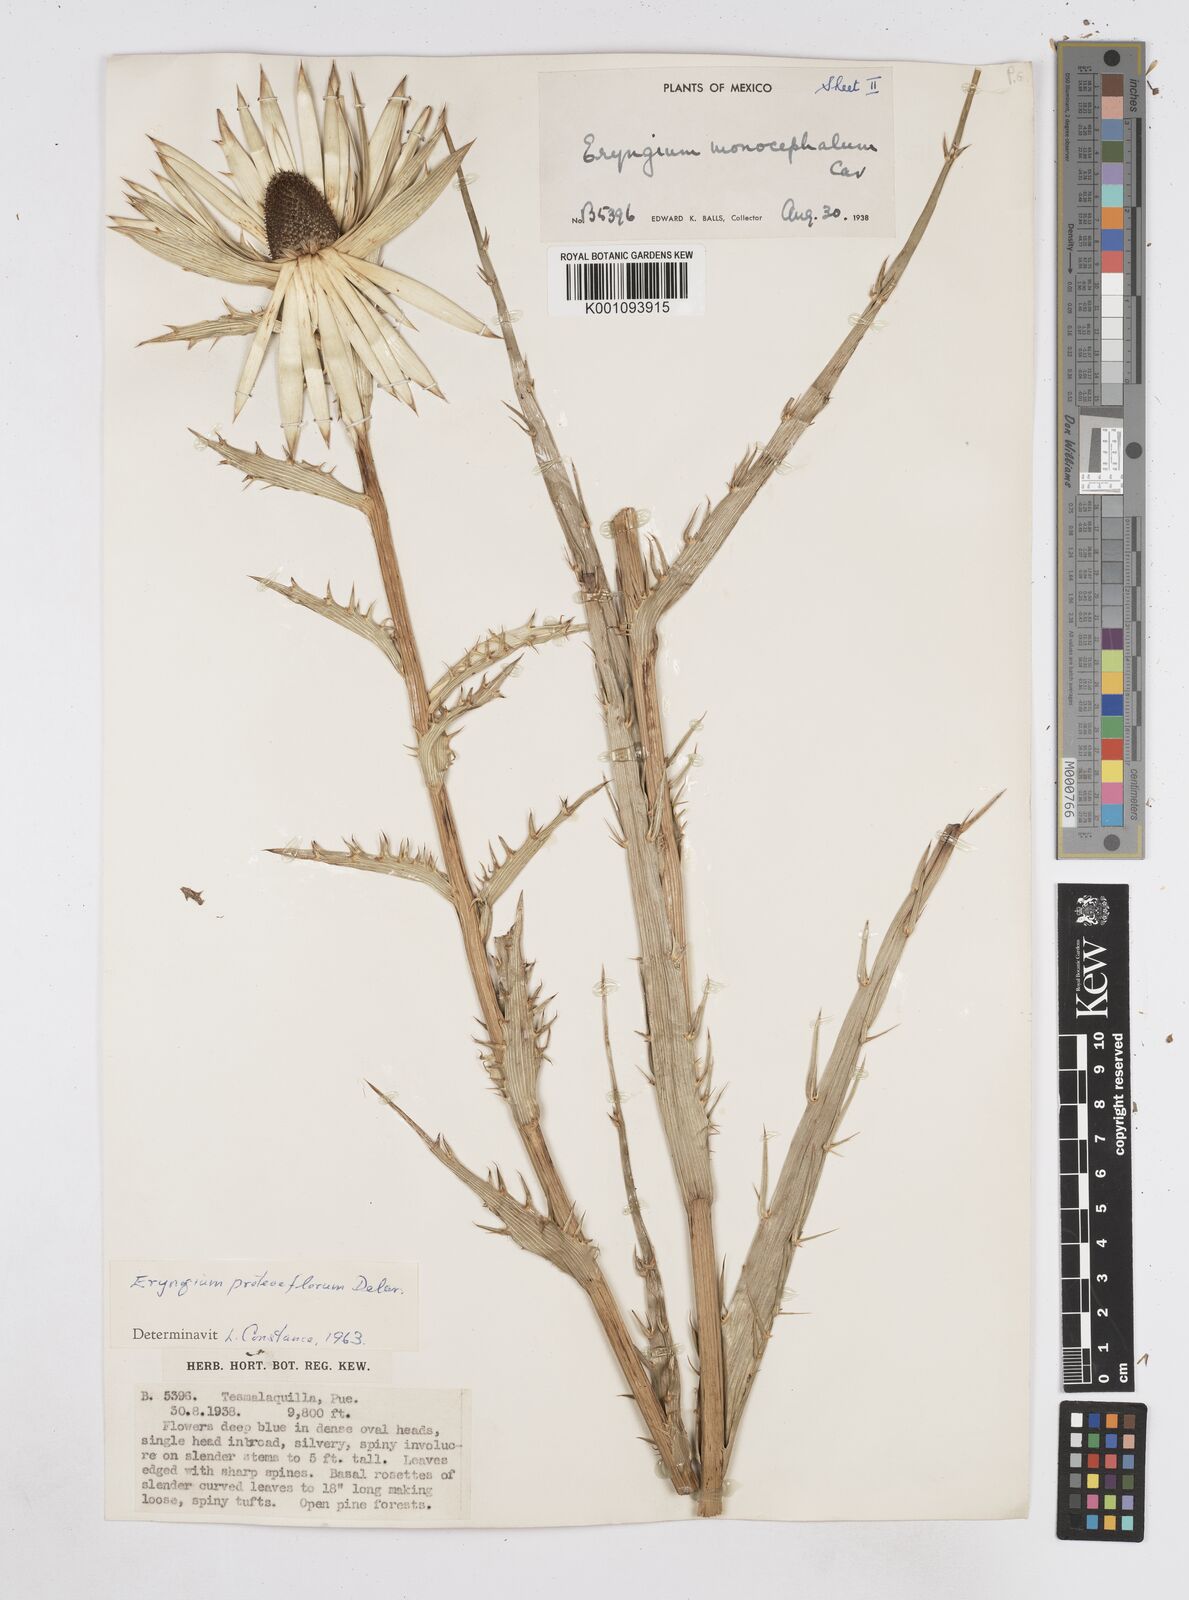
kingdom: Plantae
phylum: Tracheophyta
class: Magnoliopsida
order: Apiales
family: Apiaceae
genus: Eryngium
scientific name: Eryngium proteiflorum
